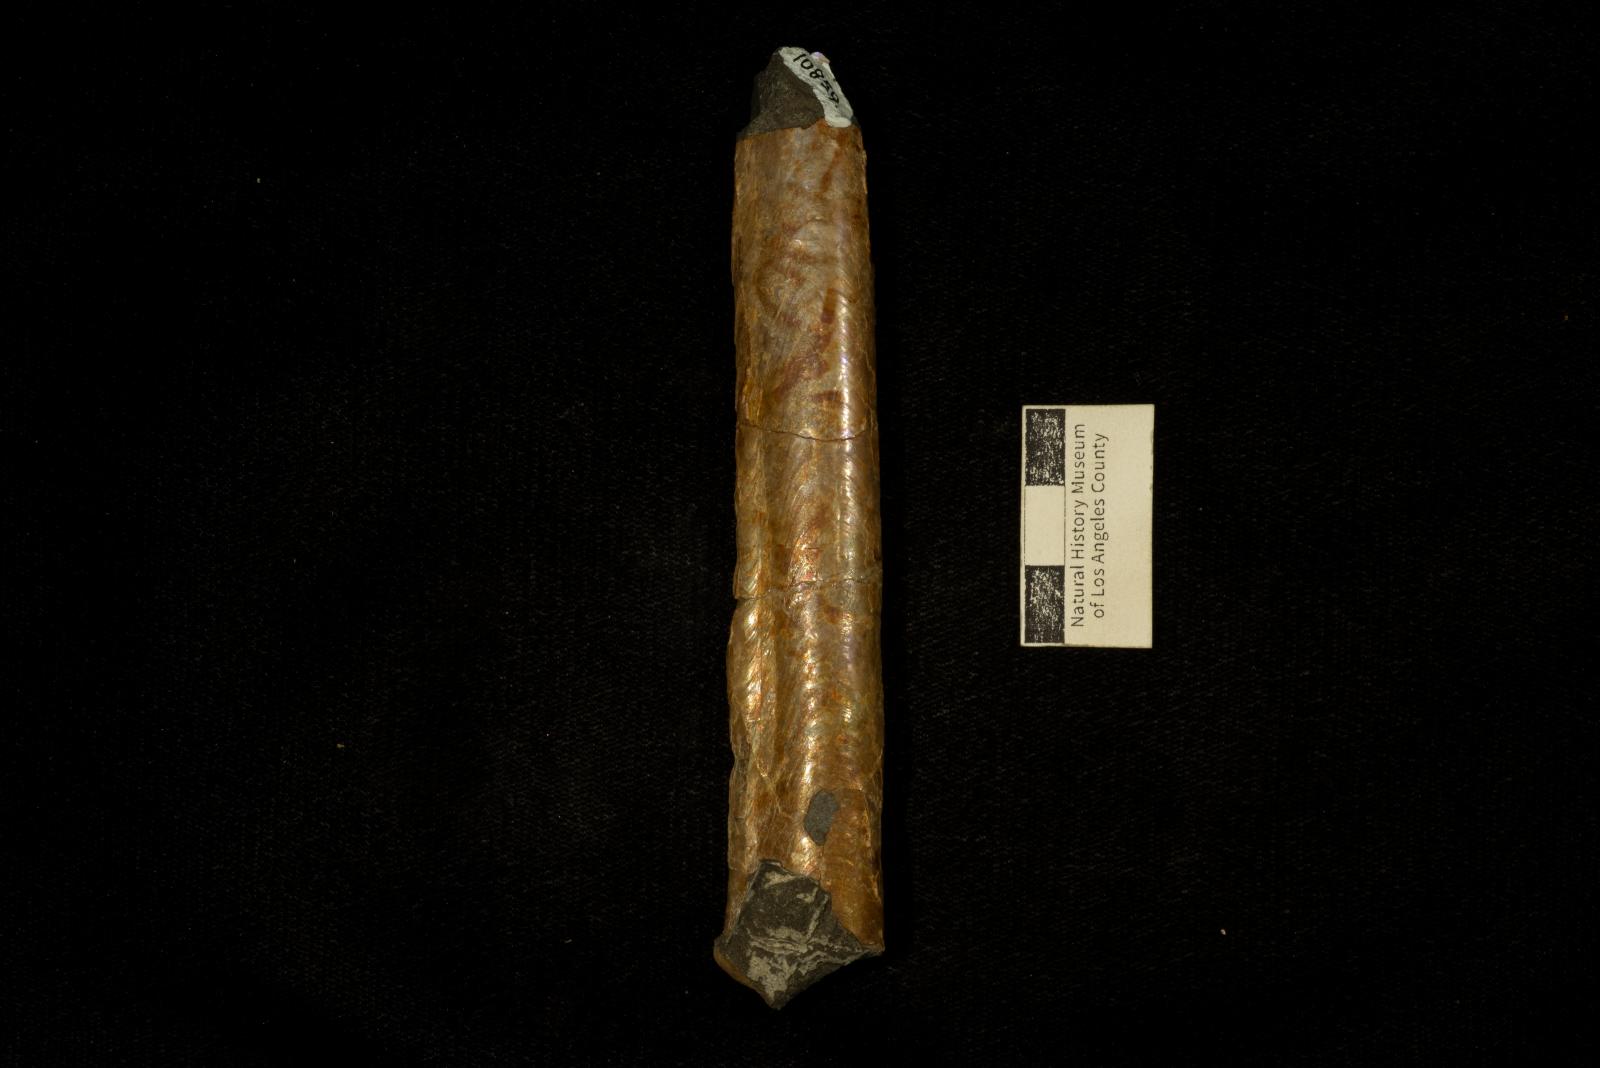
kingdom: Animalia
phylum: Mollusca
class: Cephalopoda
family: Baculitidae
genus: Baculites
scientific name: Baculites chicoensis
